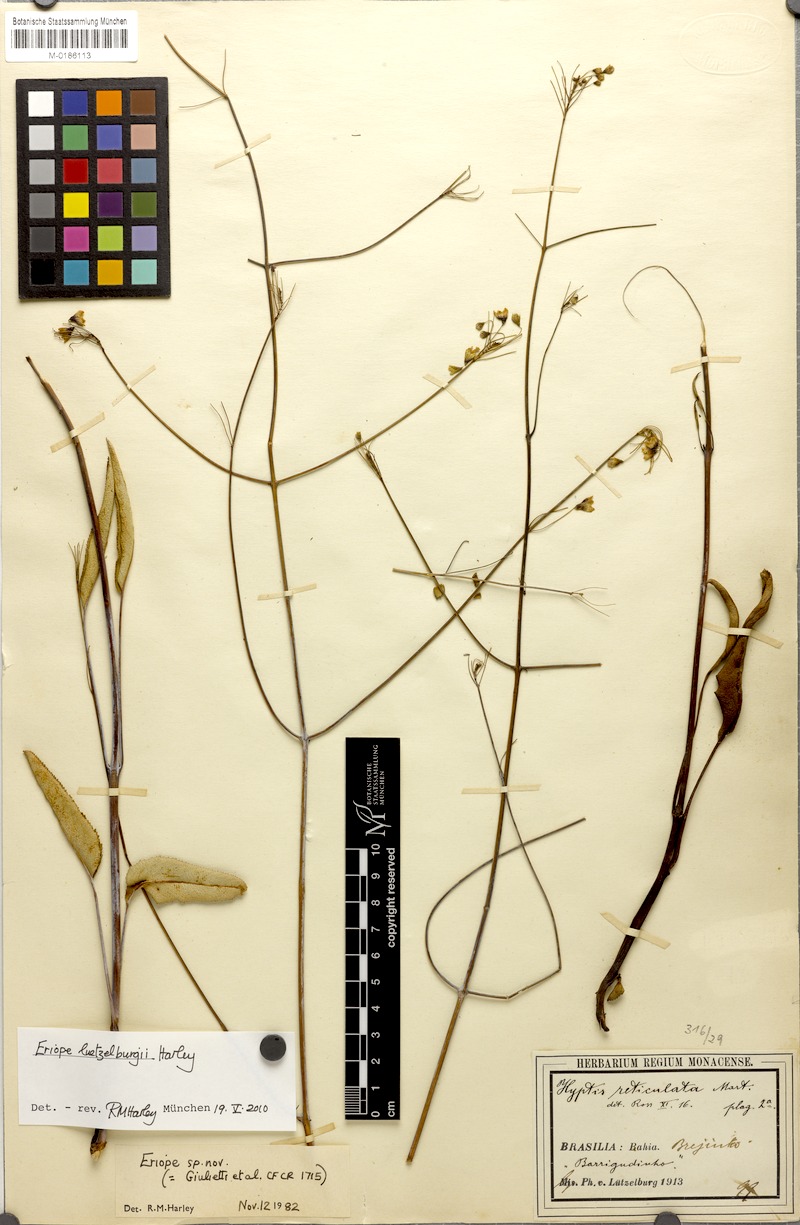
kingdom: Plantae
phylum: Tracheophyta
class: Magnoliopsida
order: Lamiales
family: Lamiaceae
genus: Eriope
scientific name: Eriope luetzelburgii
